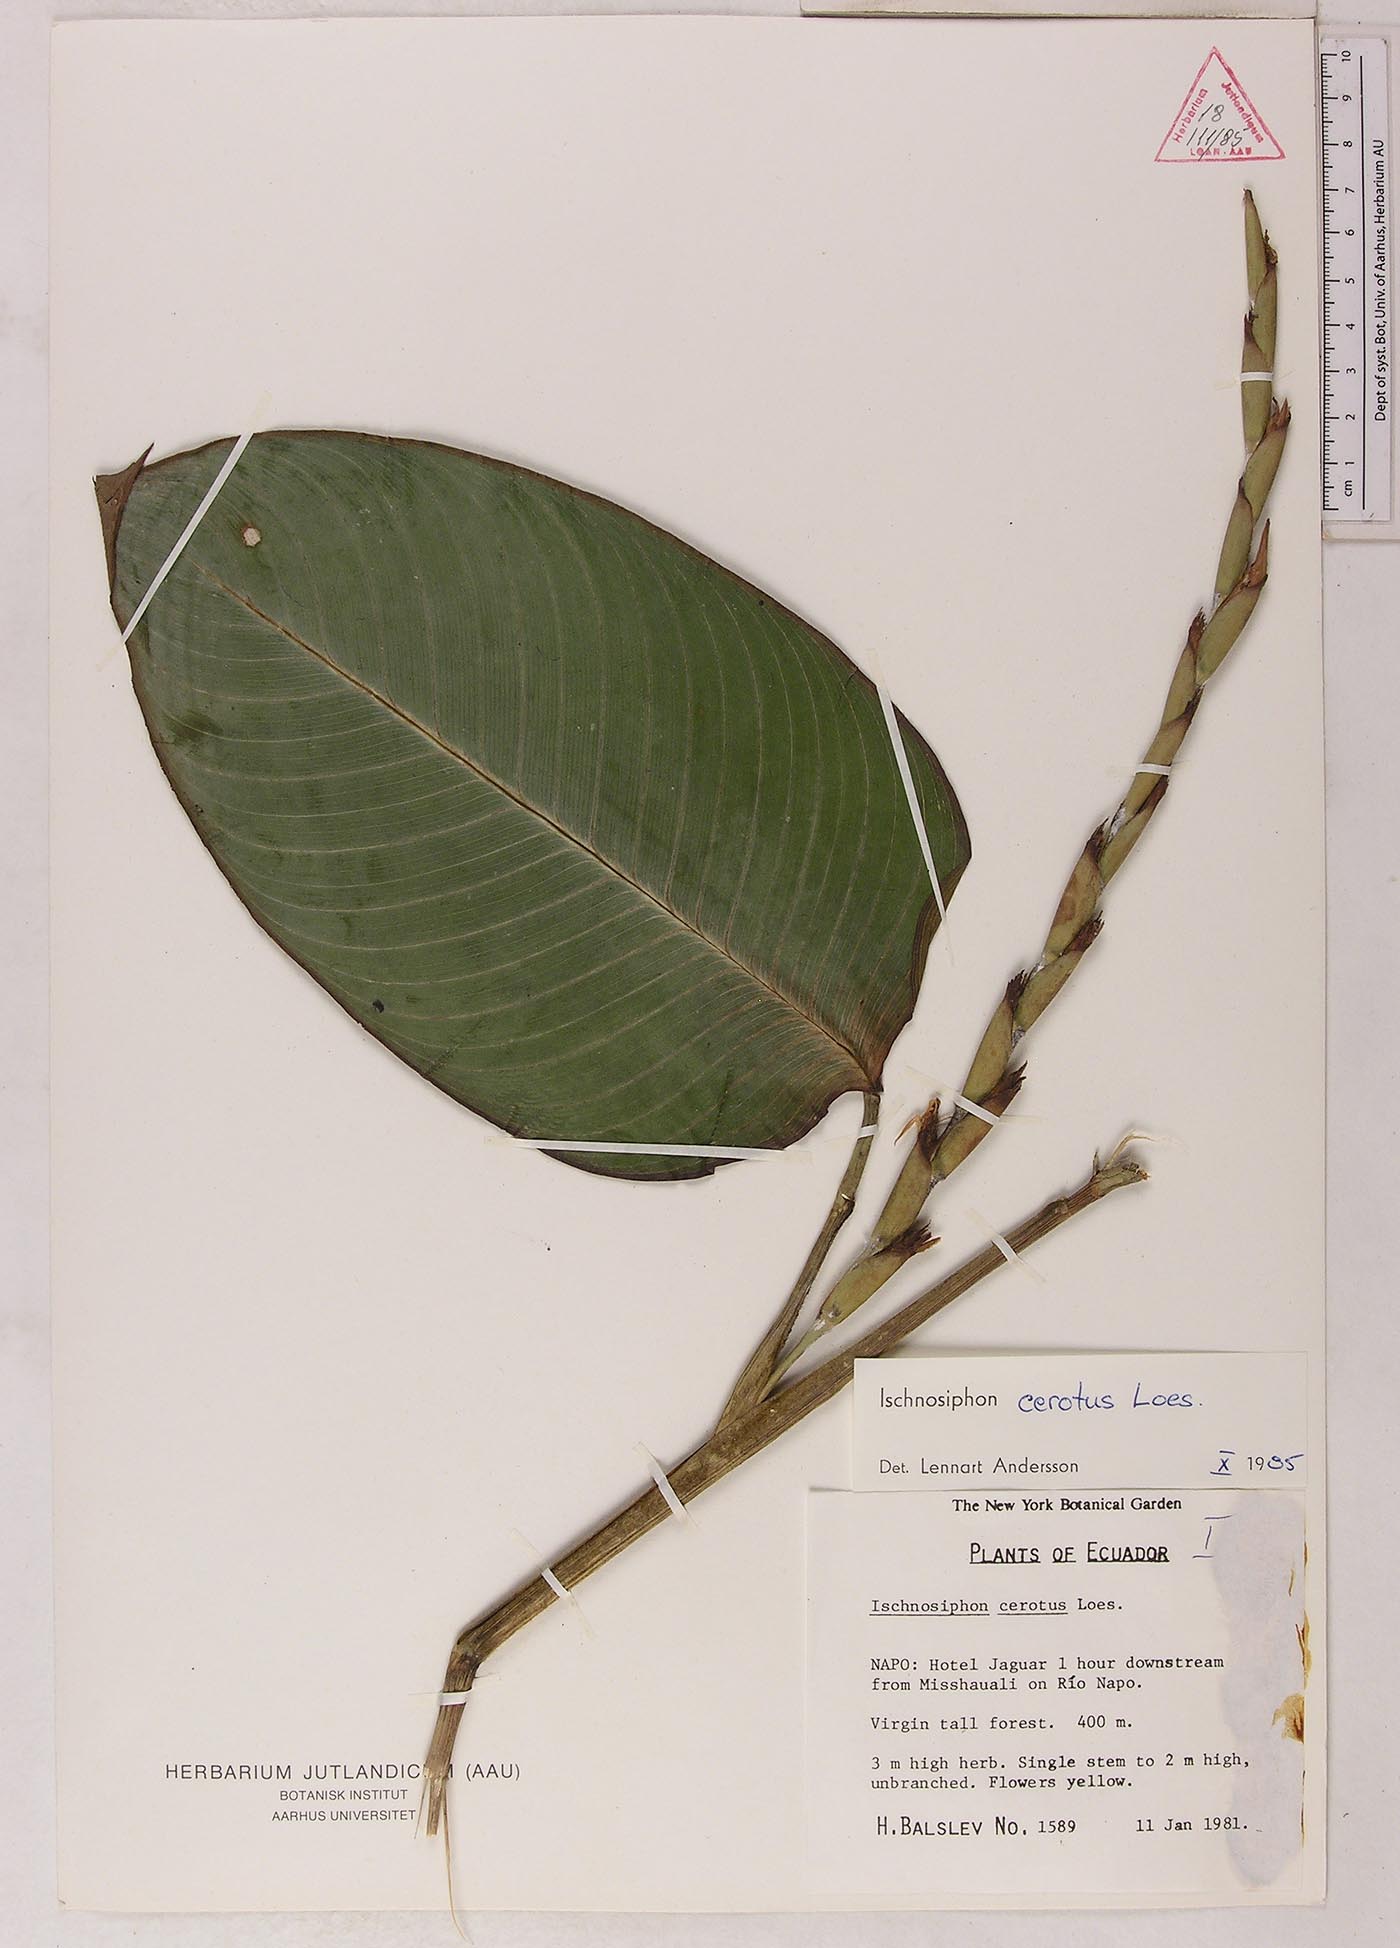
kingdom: Plantae
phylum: Tracheophyta
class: Liliopsida
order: Zingiberales
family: Marantaceae
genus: Ischnosiphon
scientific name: Ischnosiphon cerotus
